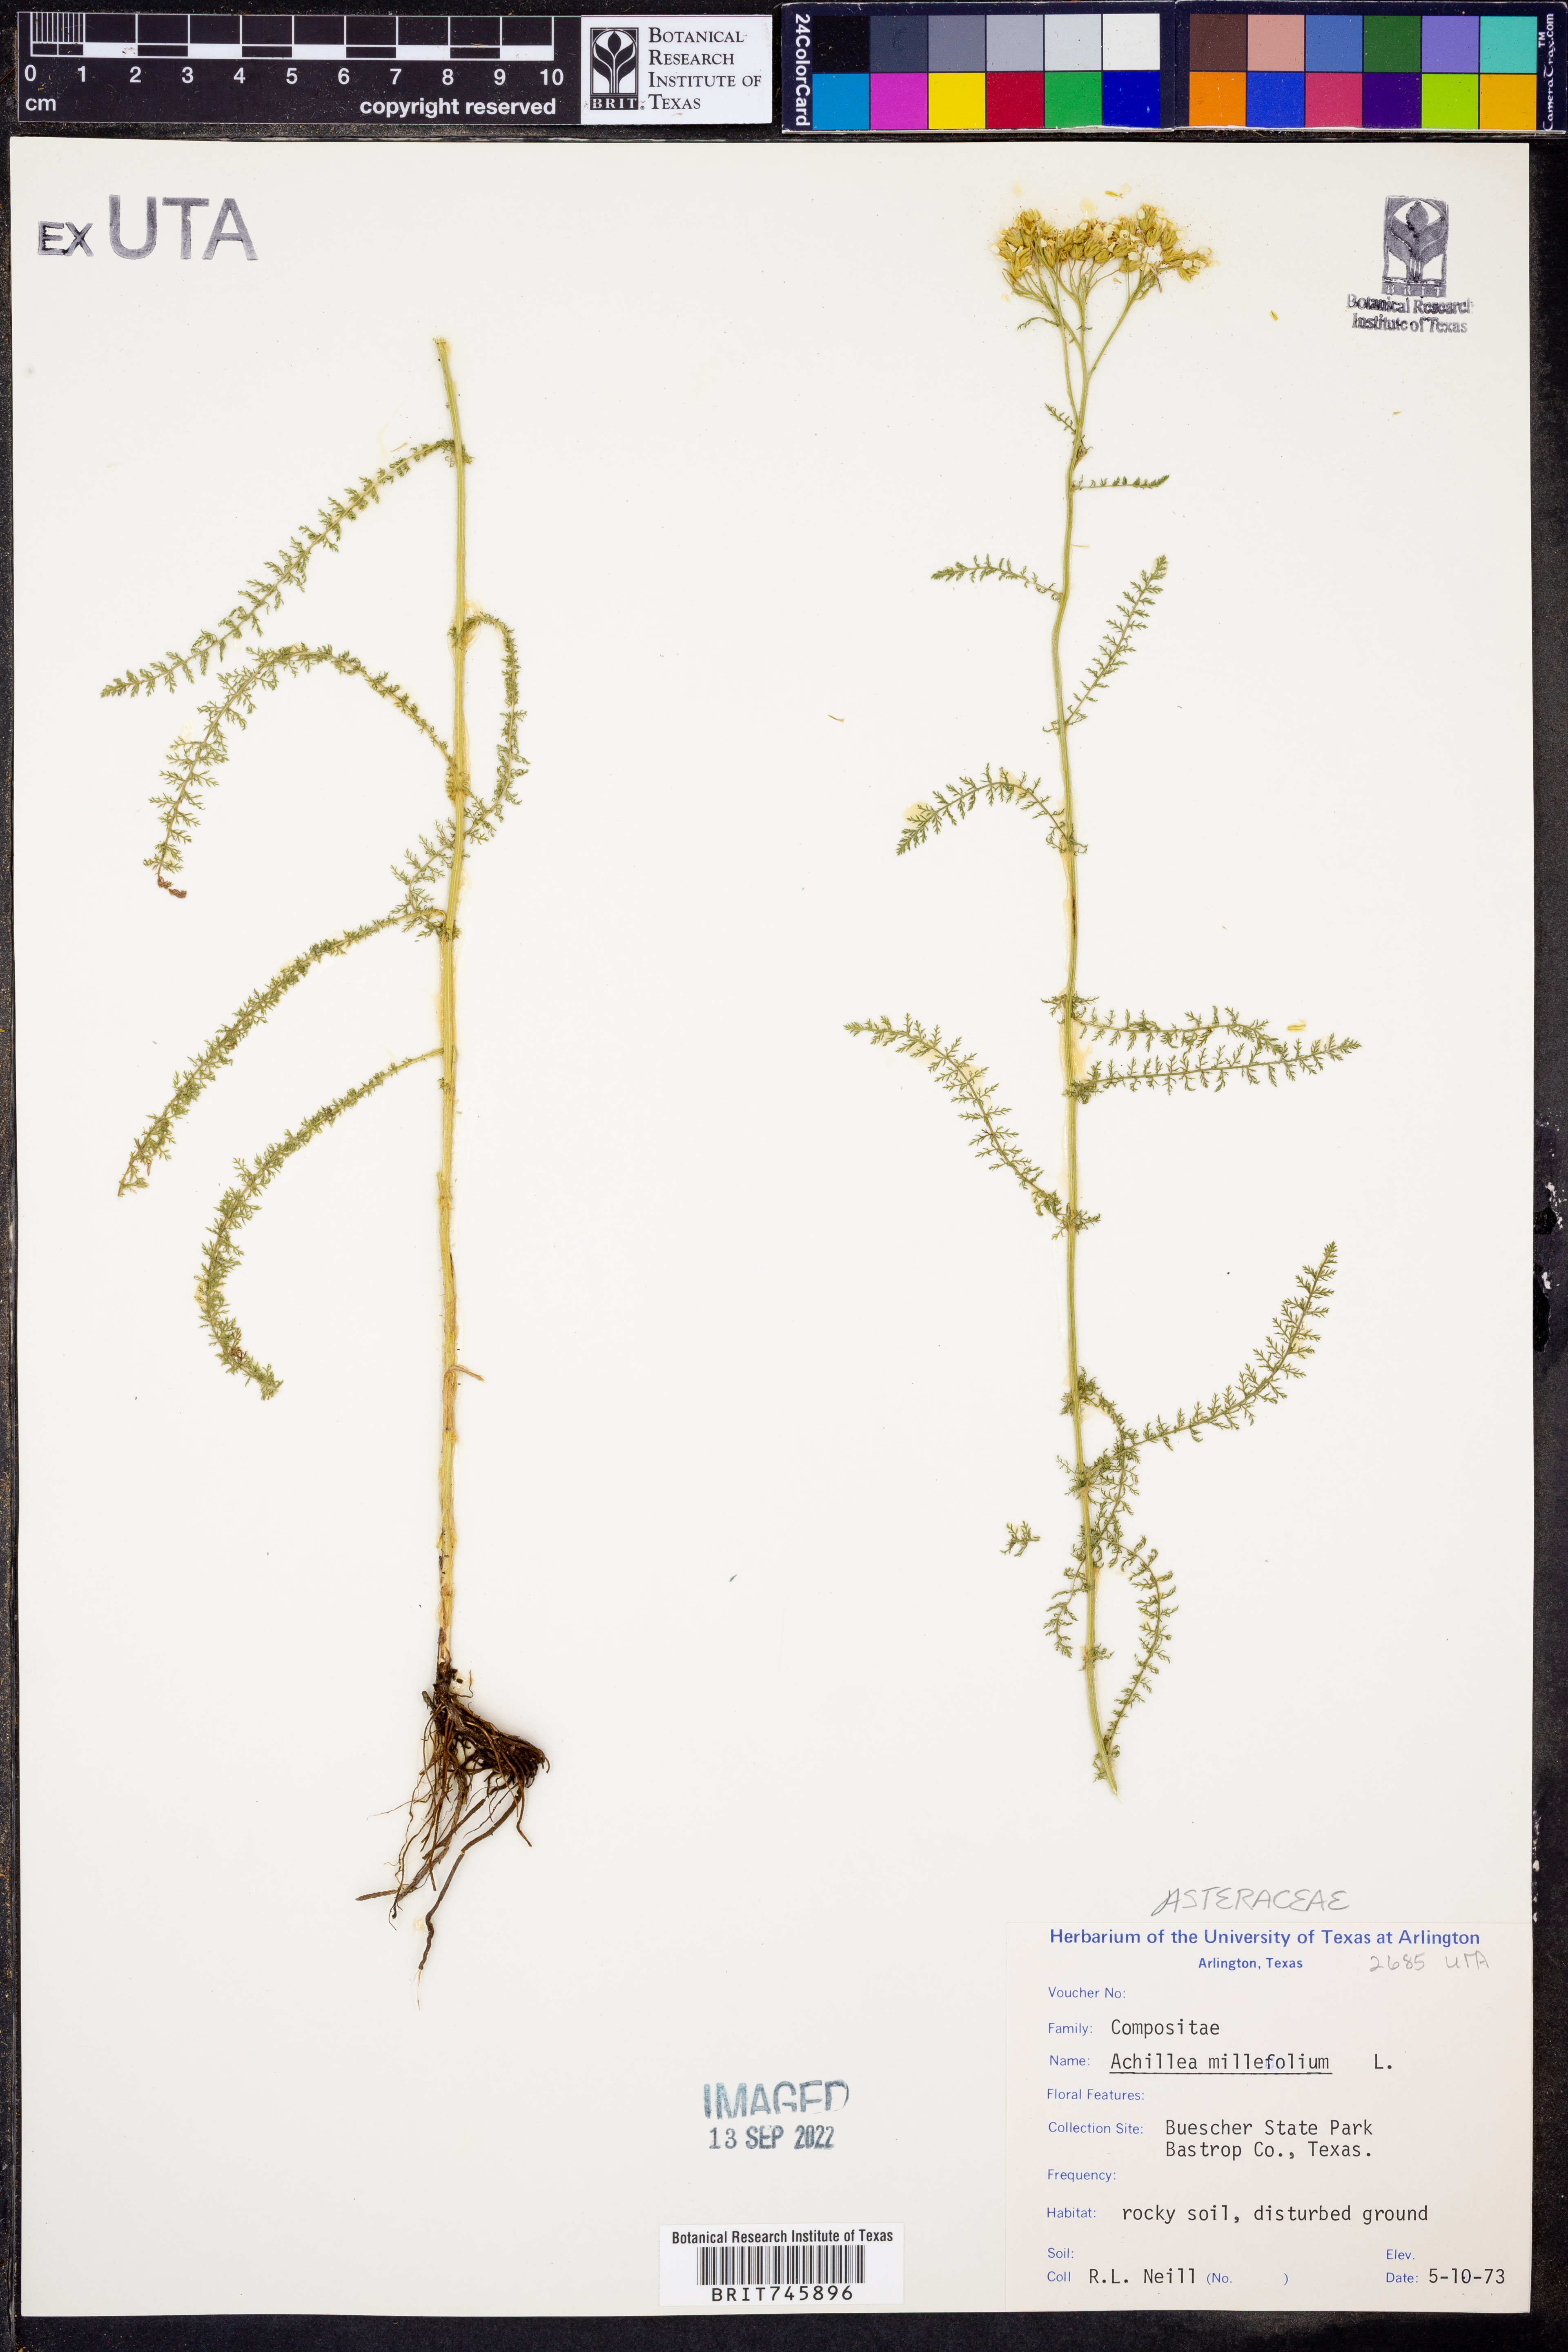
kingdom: Plantae
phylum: Tracheophyta
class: Magnoliopsida
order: Asterales
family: Asteraceae
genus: Achillea
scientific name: Achillea millefolium
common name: Yarrow
